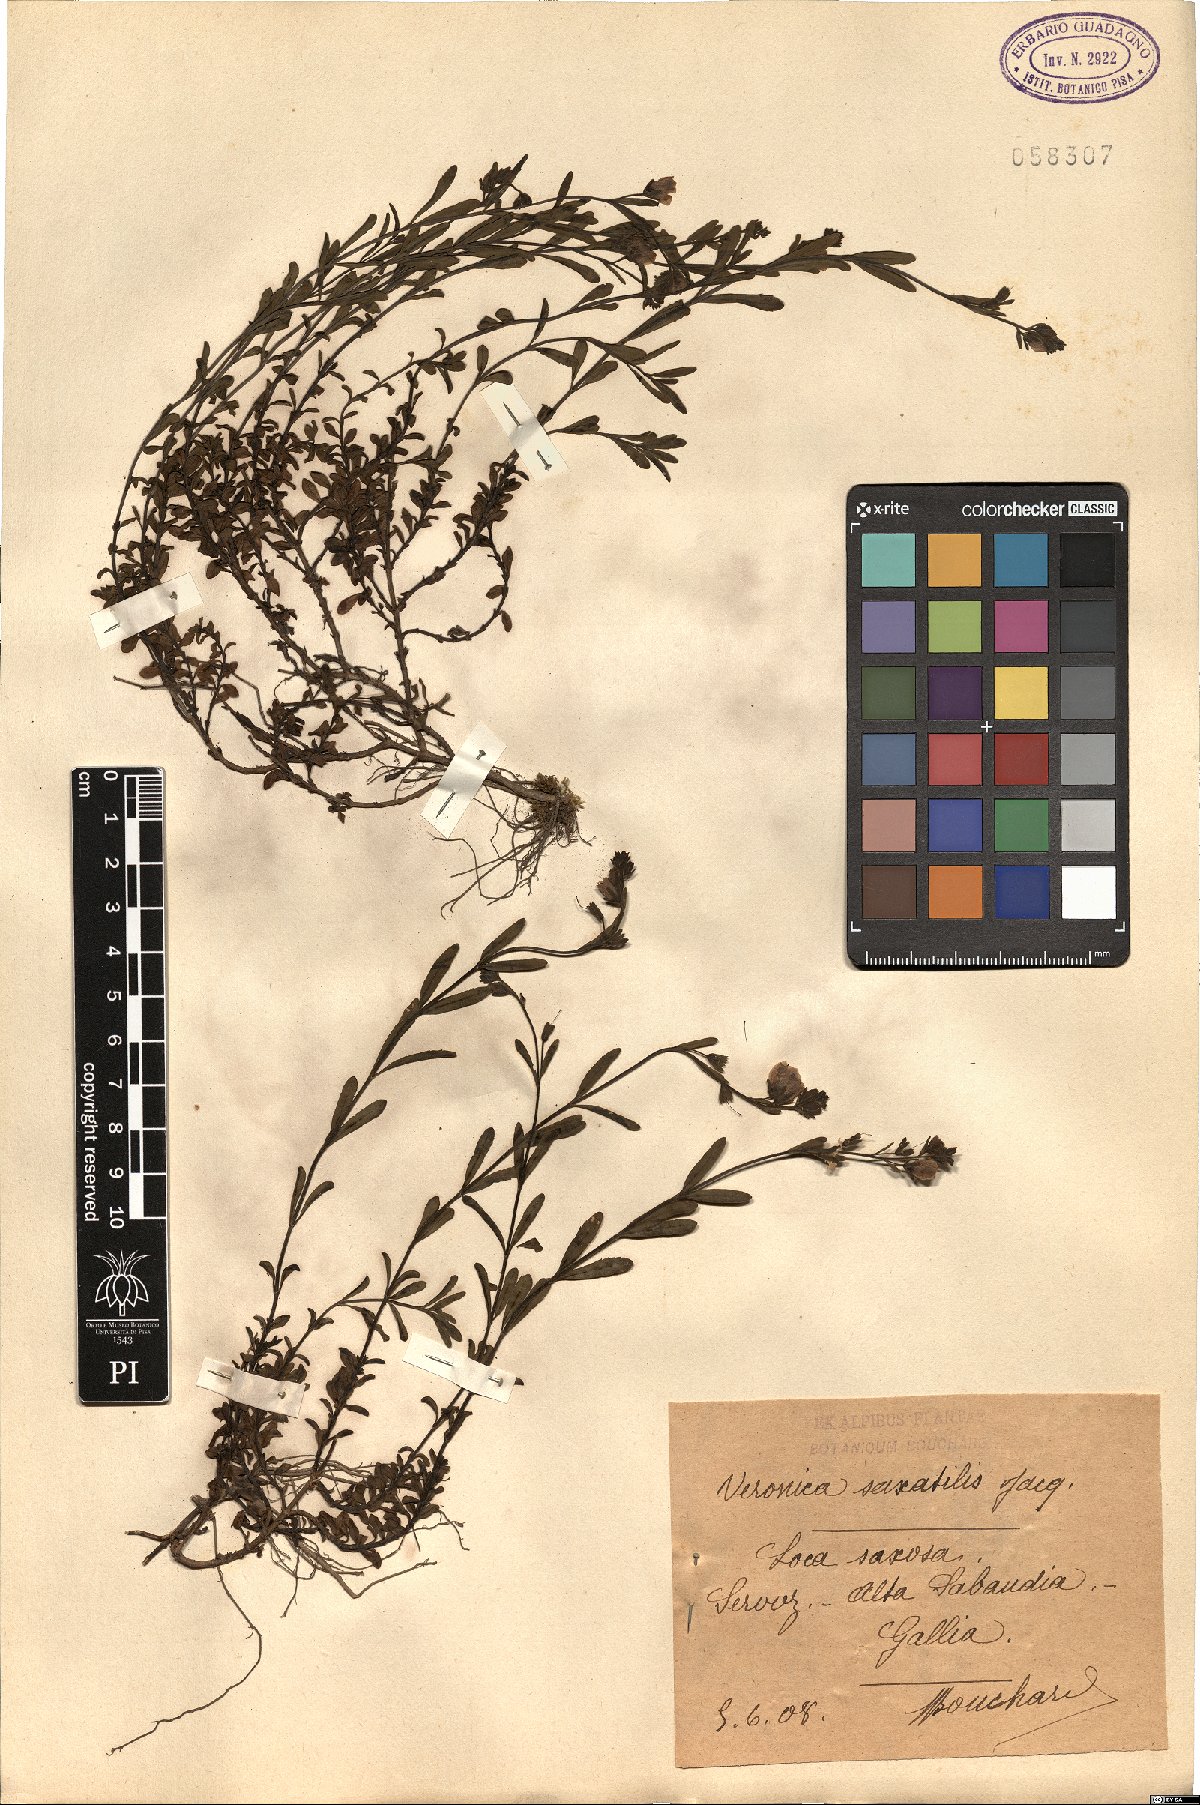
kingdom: Plantae
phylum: Tracheophyta
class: Magnoliopsida
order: Lamiales
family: Plantaginaceae
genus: Veronica
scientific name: Veronica fruticans
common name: Rock speedwell
